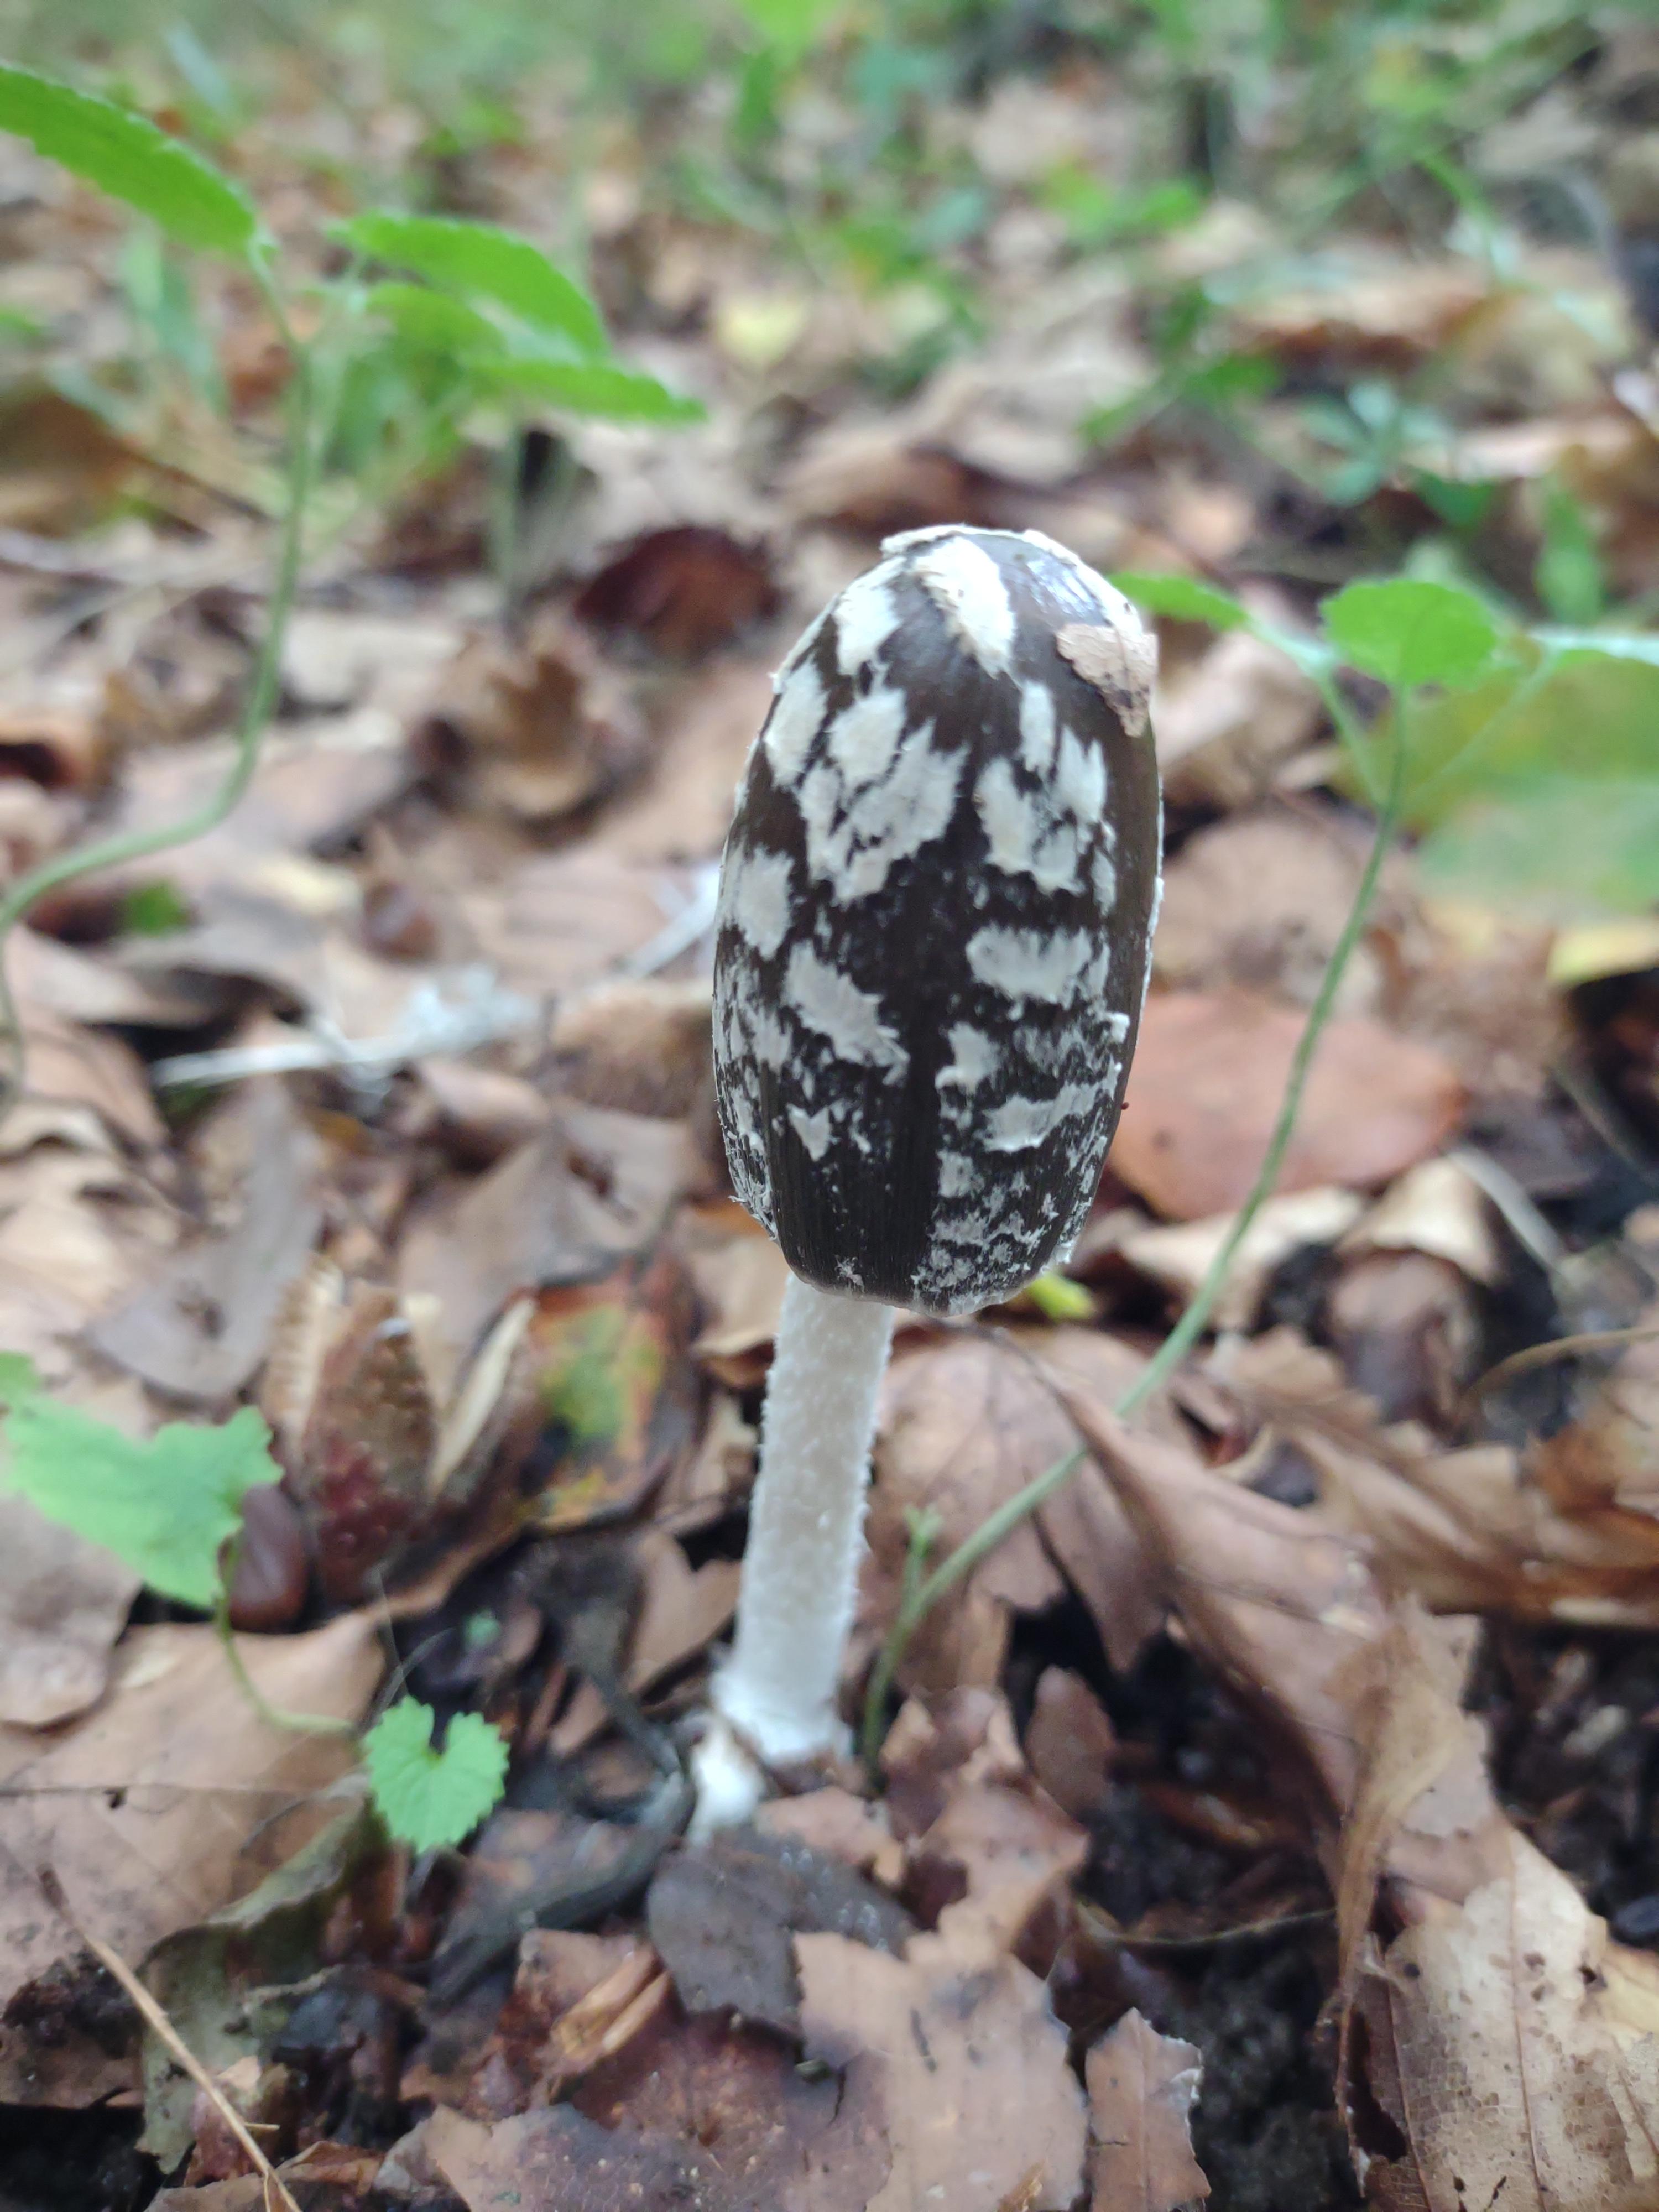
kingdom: Fungi
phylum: Basidiomycota
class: Agaricomycetes
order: Agaricales
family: Psathyrellaceae
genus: Coprinopsis
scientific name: Coprinopsis picacea
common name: skade-blækhat
